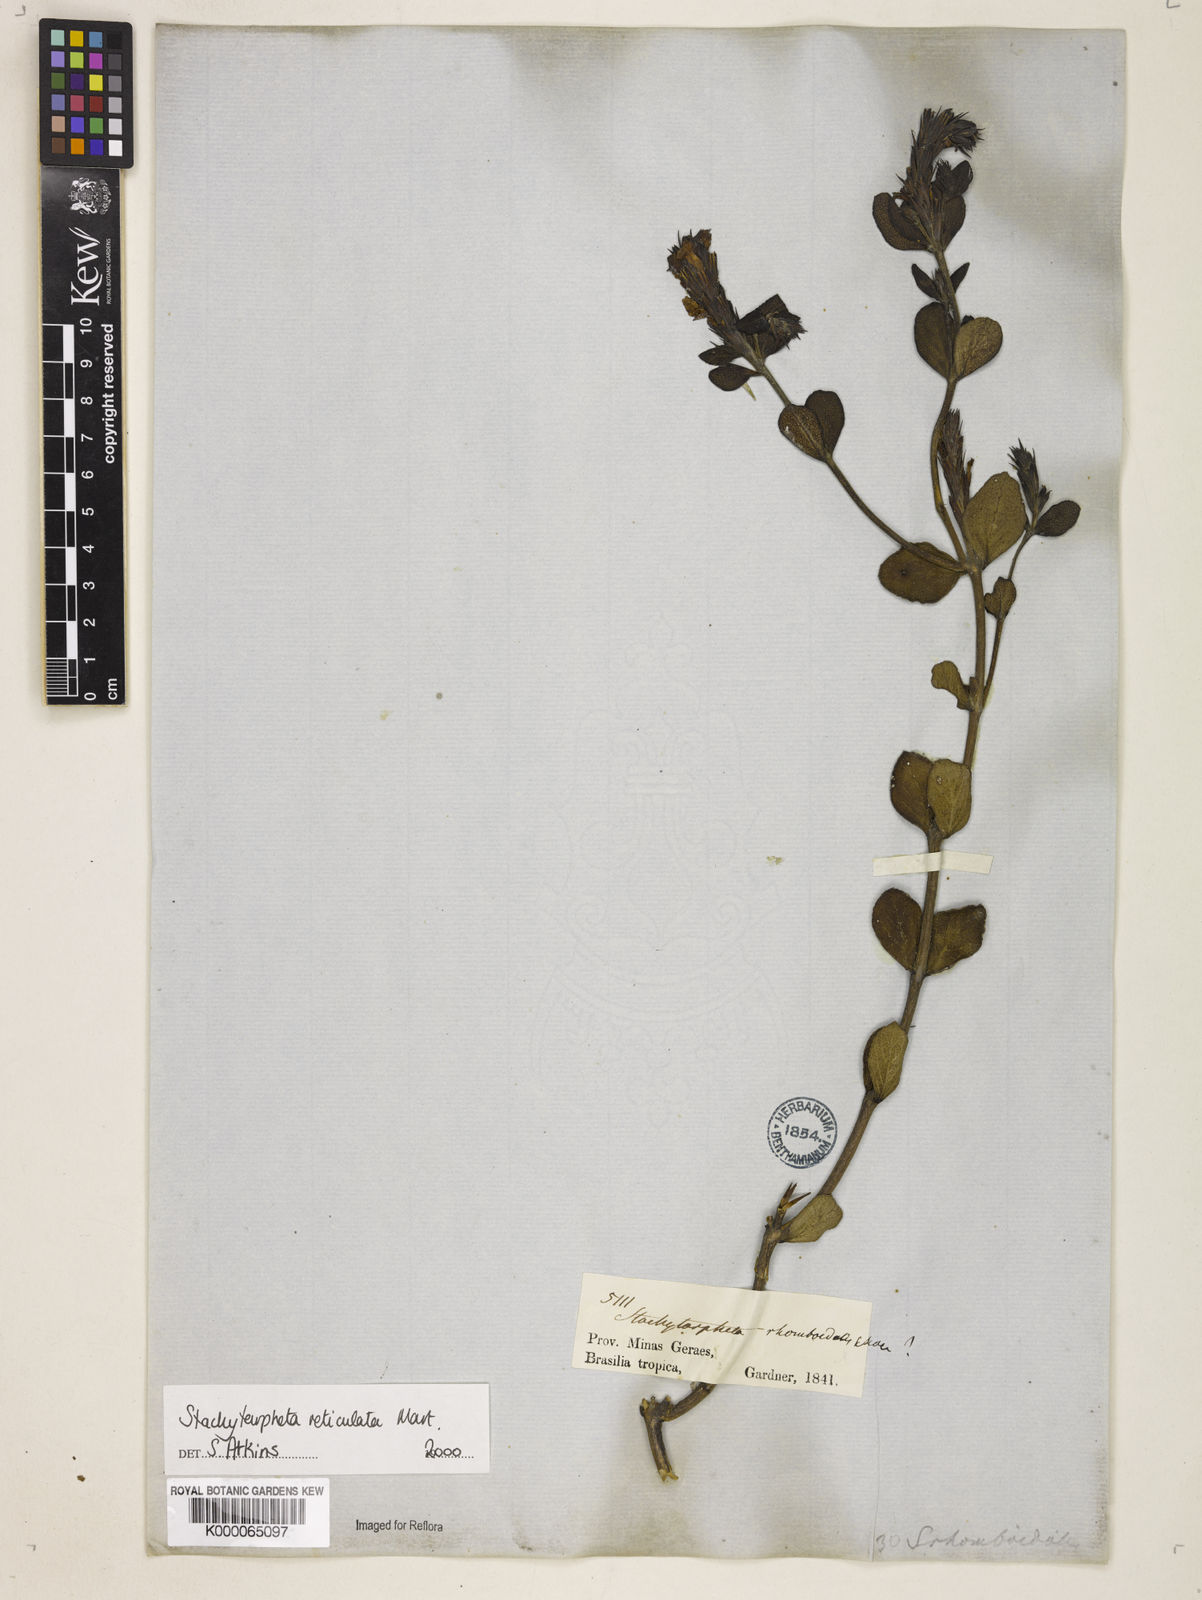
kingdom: Plantae
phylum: Tracheophyta
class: Magnoliopsida
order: Lamiales
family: Verbenaceae
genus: Stachytarpheta
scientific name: Stachytarpheta
